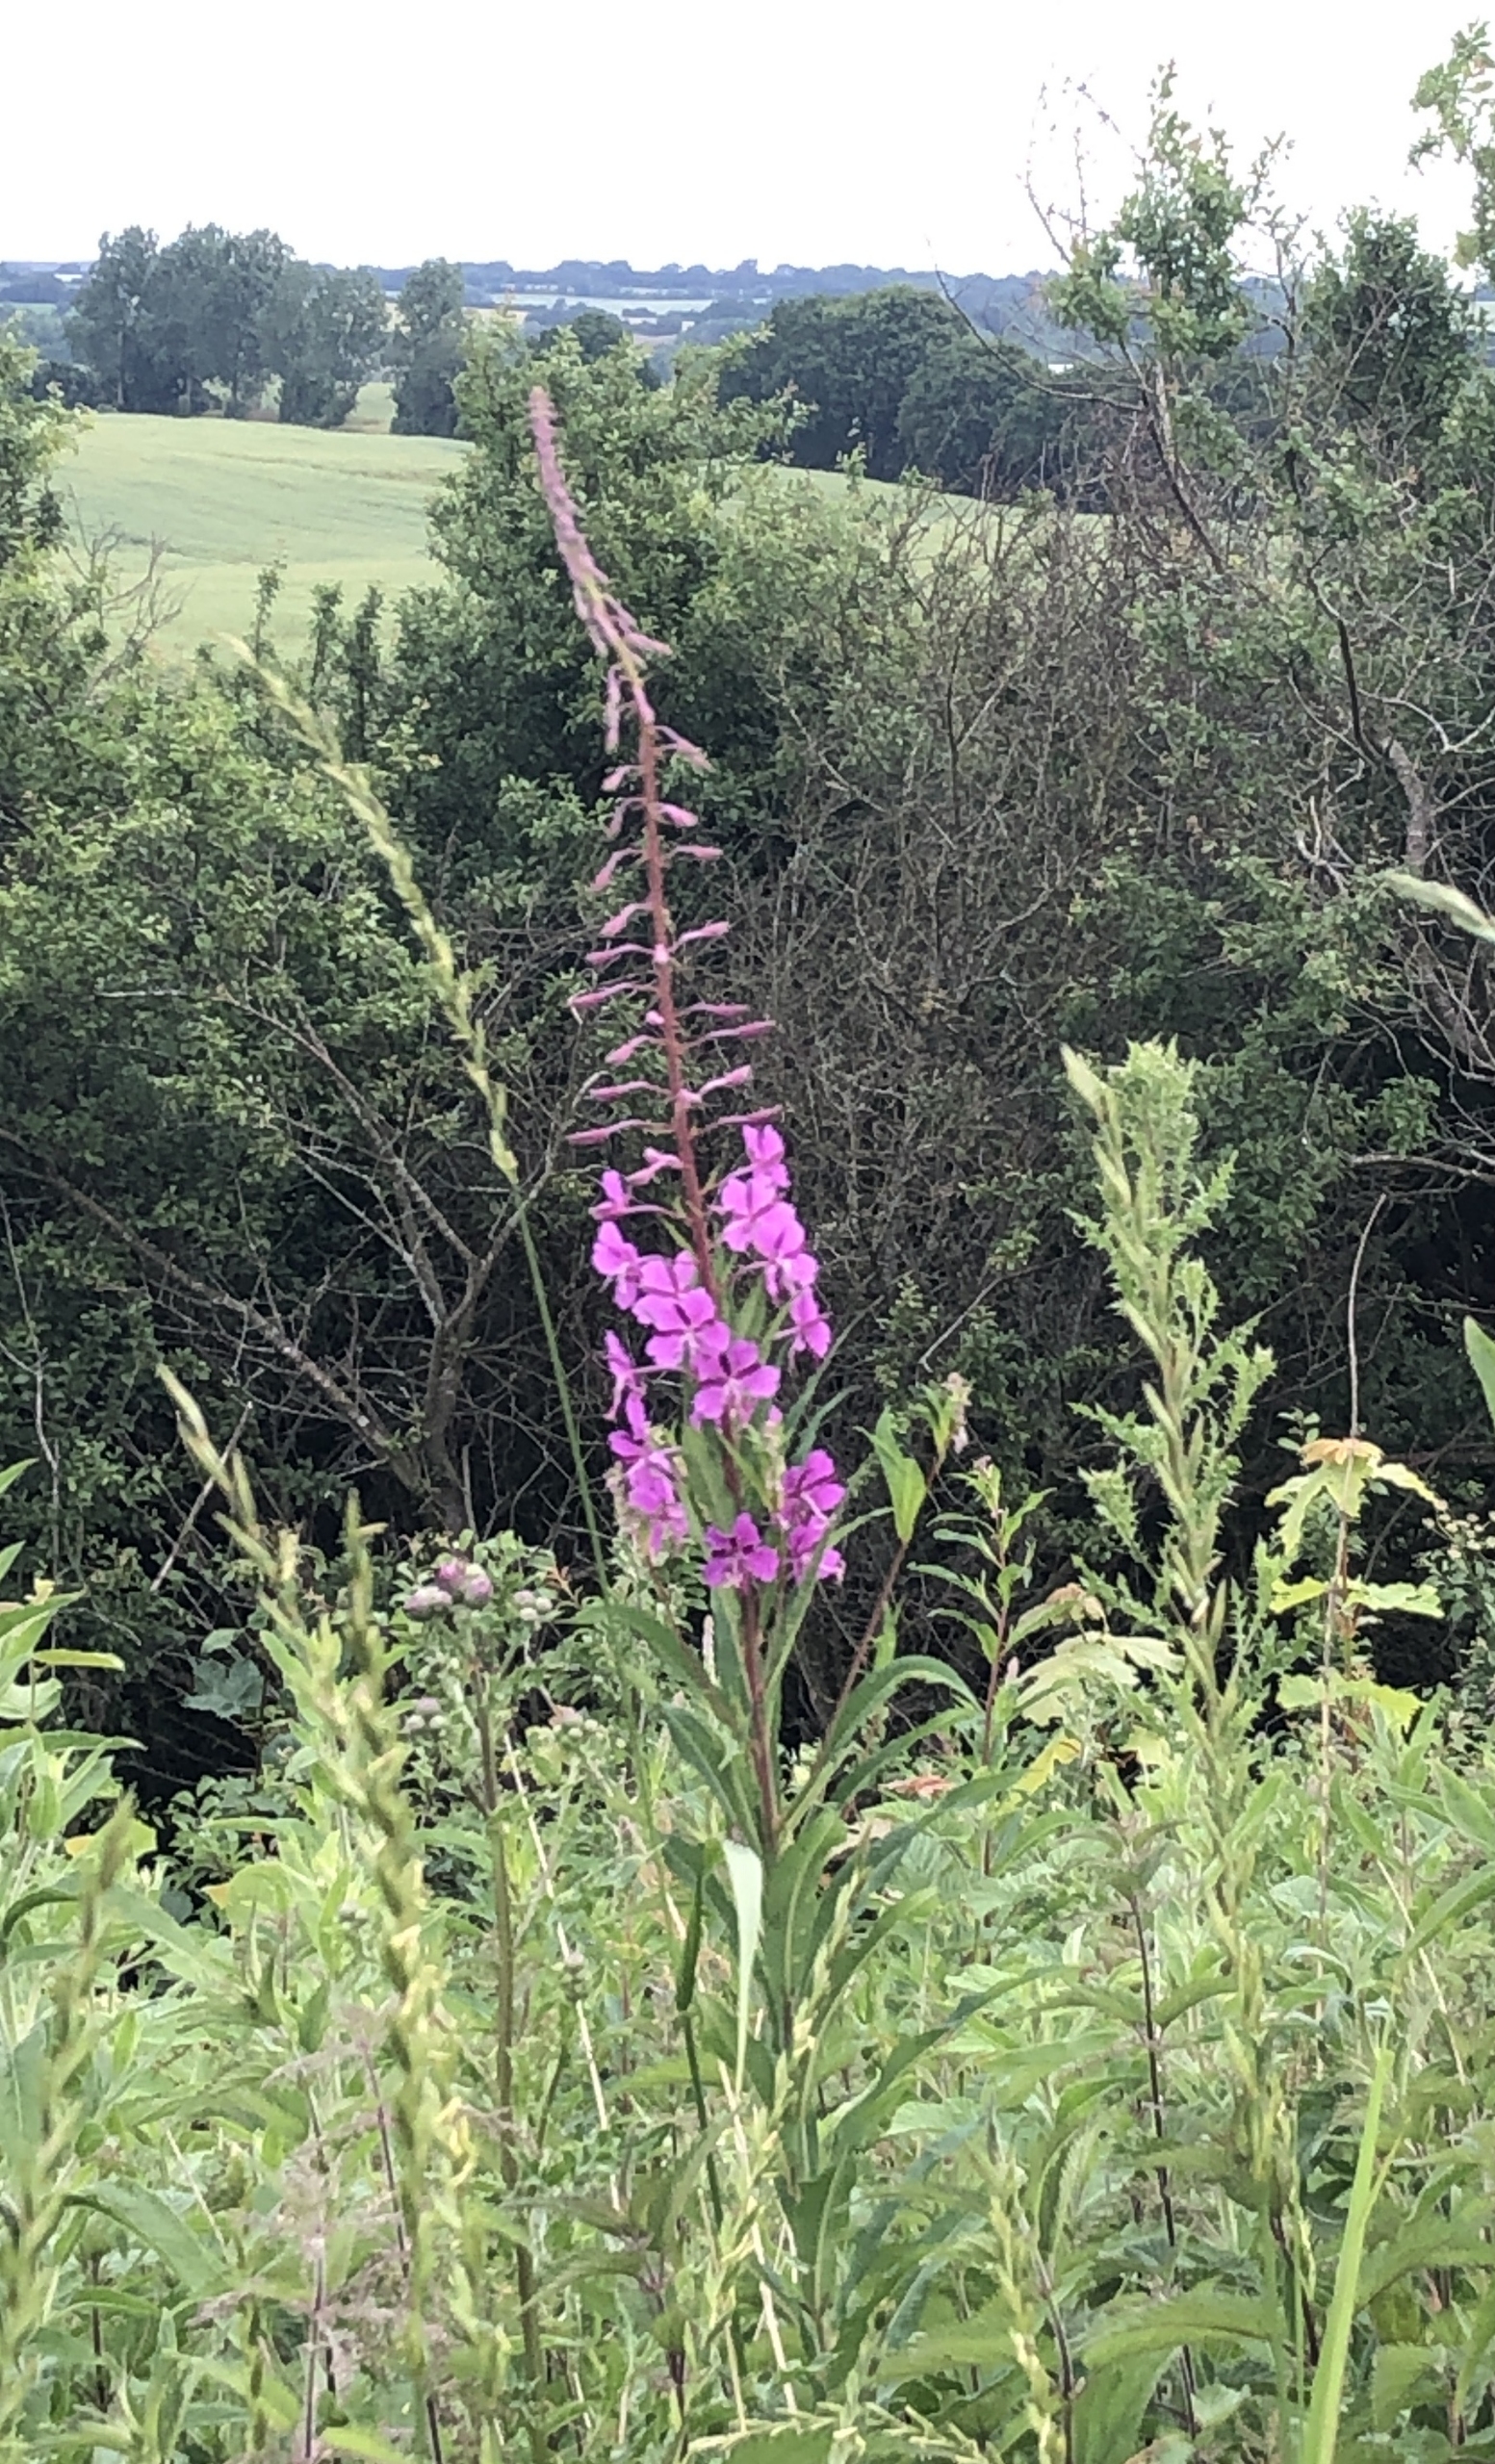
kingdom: Plantae
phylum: Tracheophyta
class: Magnoliopsida
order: Myrtales
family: Onagraceae
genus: Chamaenerion
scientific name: Chamaenerion angustifolium
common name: Gederams
